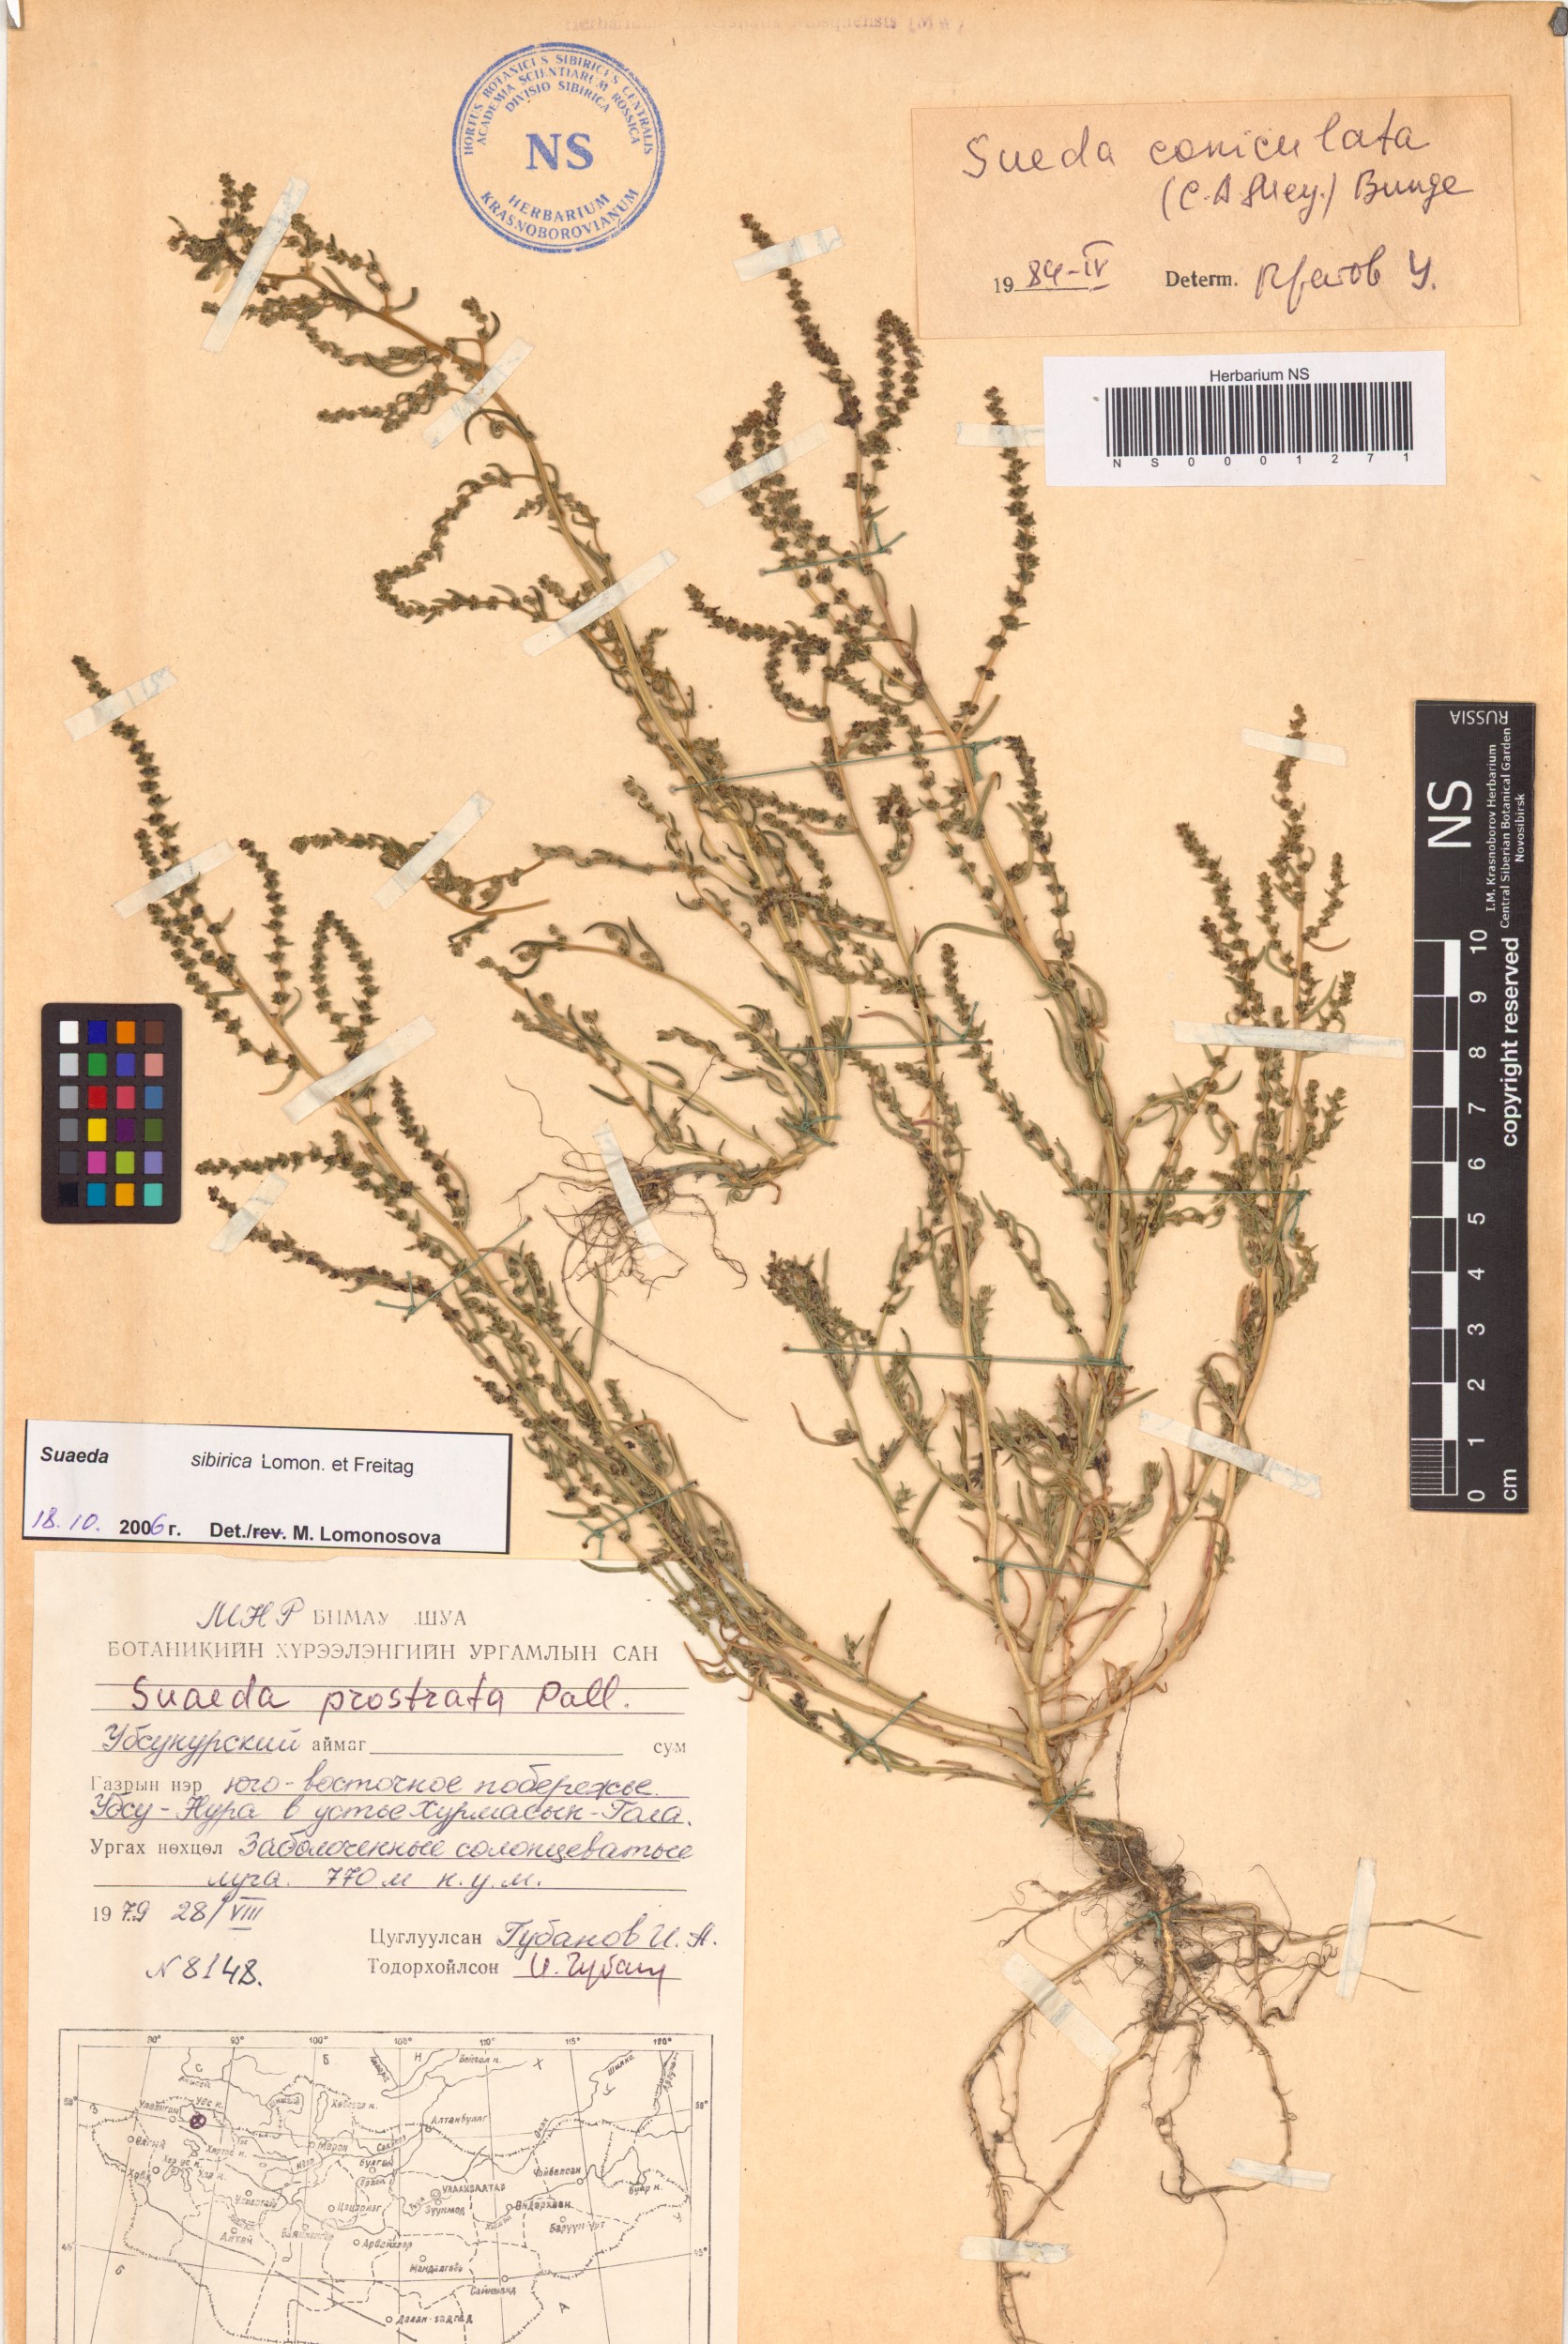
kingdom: Plantae
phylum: Tracheophyta
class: Magnoliopsida
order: Caryophyllales
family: Amaranthaceae
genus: Suaeda
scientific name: Suaeda sibirica
